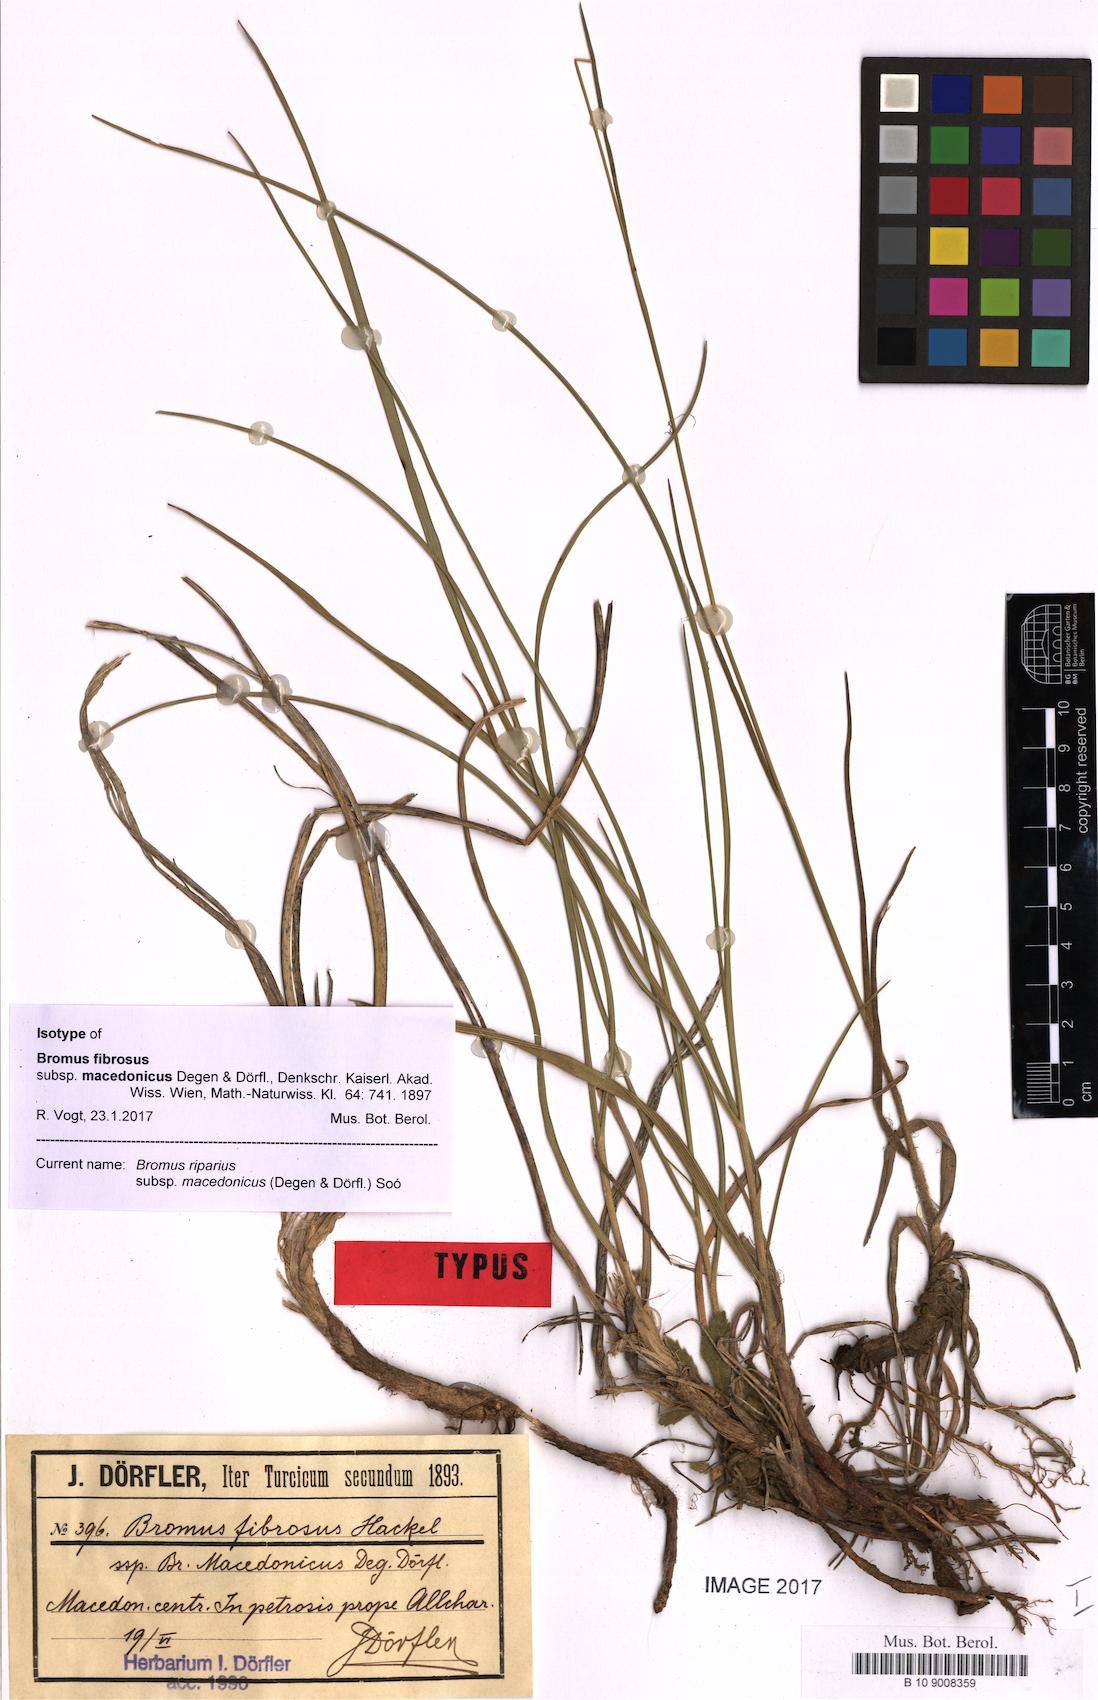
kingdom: Plantae
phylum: Tracheophyta
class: Liliopsida
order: Poales
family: Poaceae
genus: Bromus
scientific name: Bromus riparius
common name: Meadow brome
